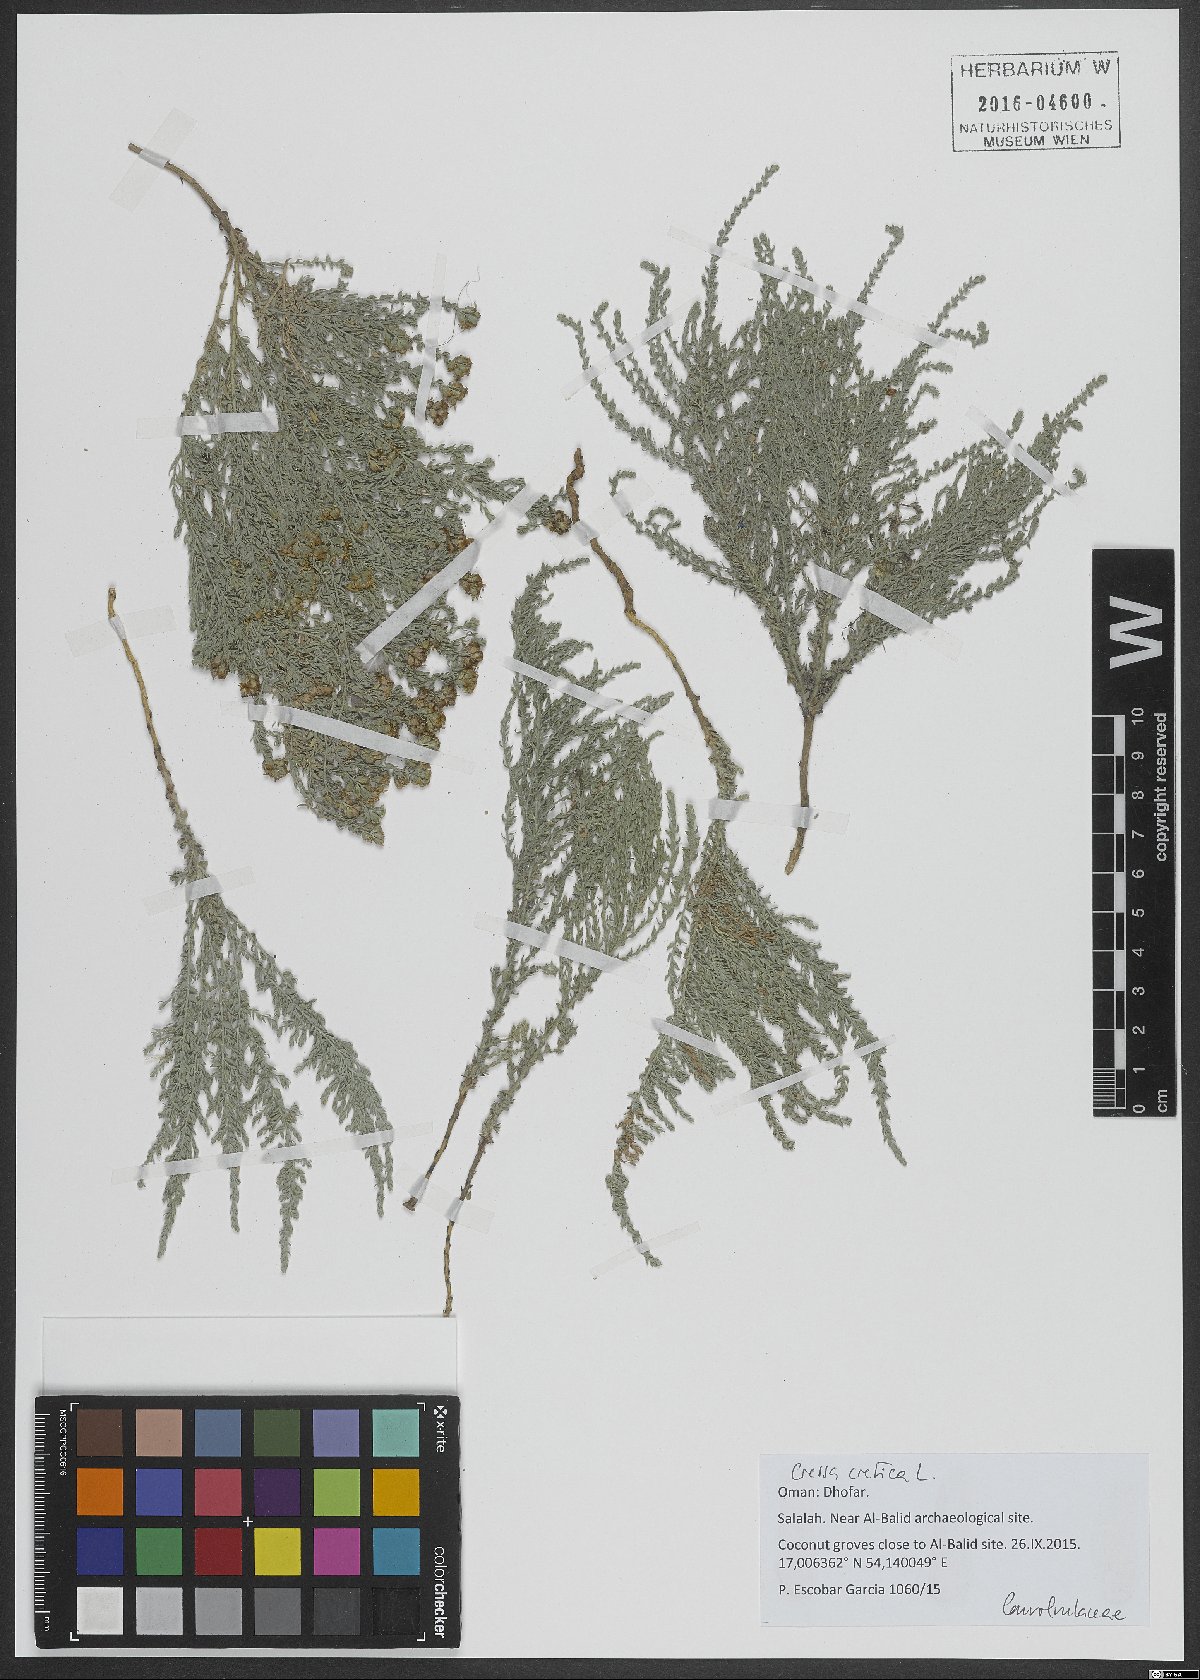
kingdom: Plantae
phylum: Tracheophyta
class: Magnoliopsida
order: Solanales
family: Convolvulaceae
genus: Cressa
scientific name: Cressa cretica
